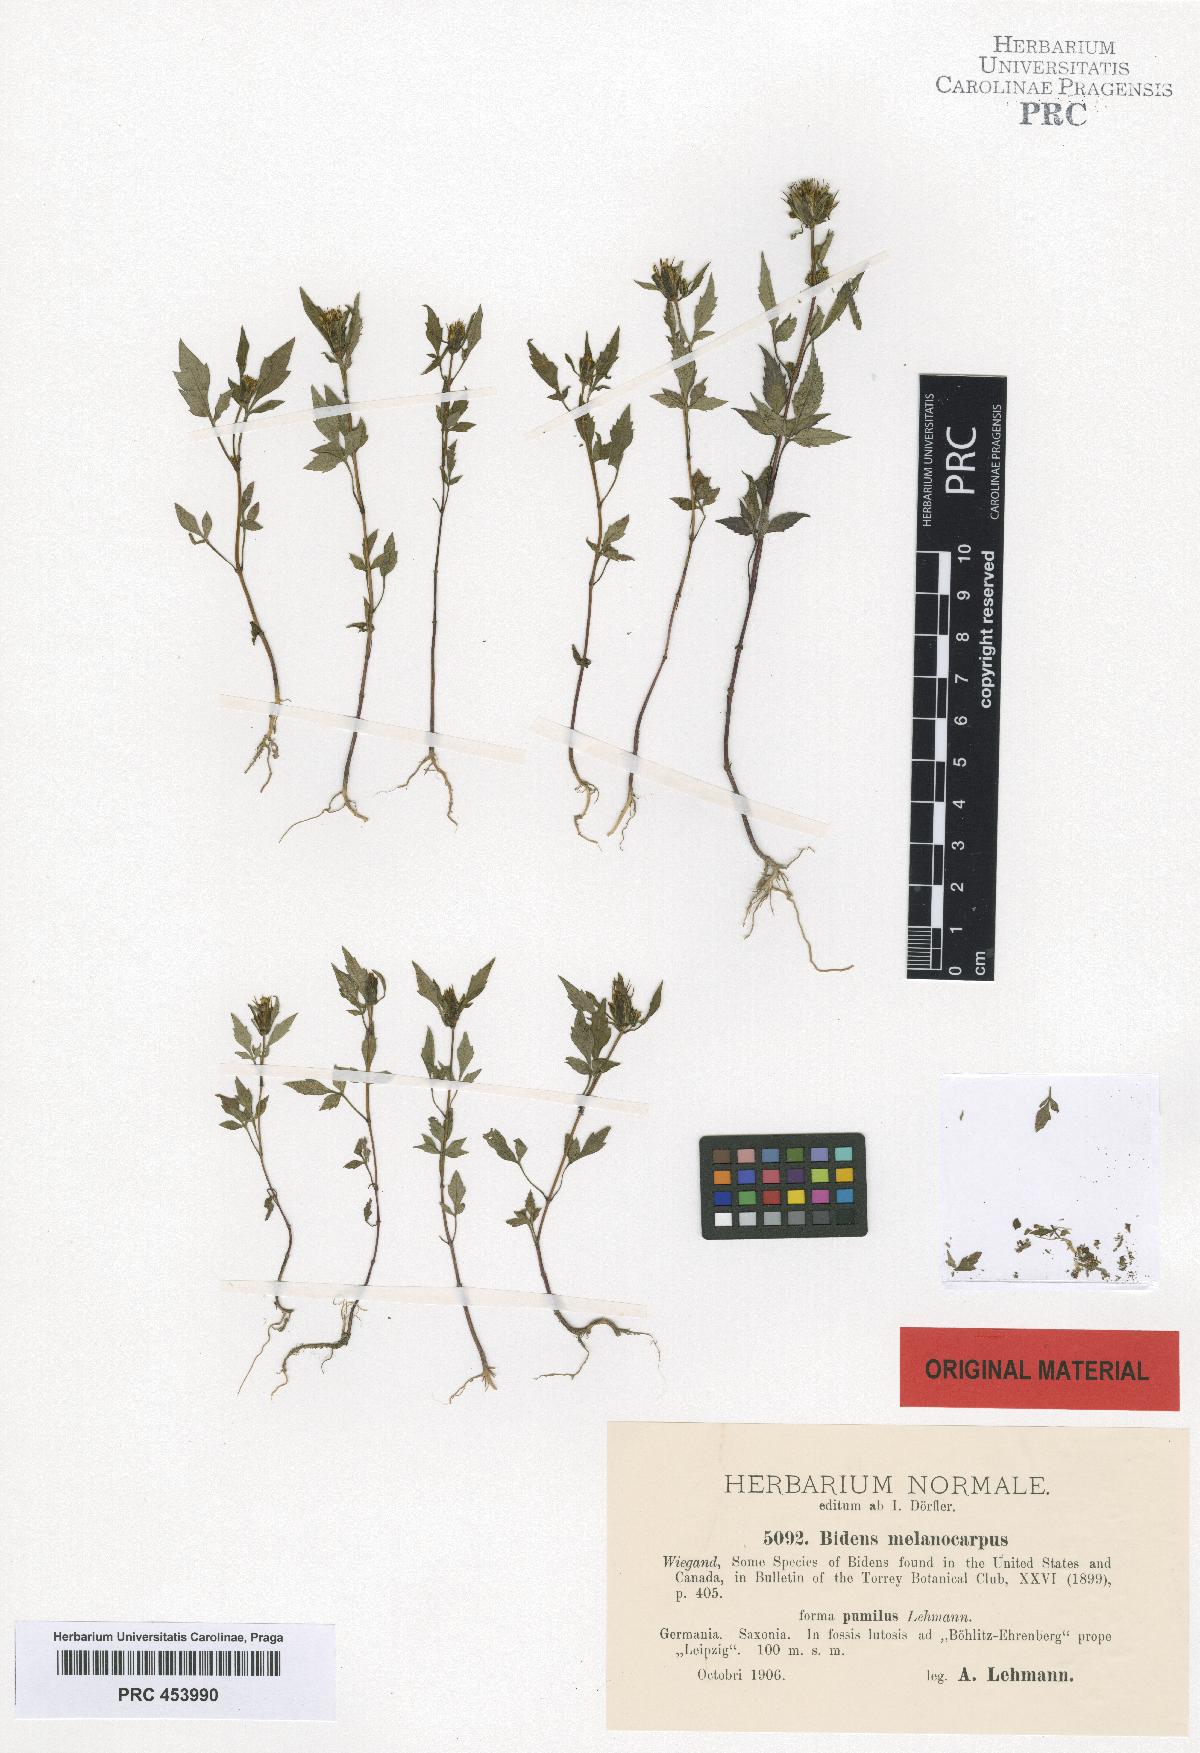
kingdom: Plantae
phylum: Tracheophyta
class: Magnoliopsida
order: Asterales
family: Asteraceae
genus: Bidens
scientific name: Bidens frondosa
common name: Beggarticks
